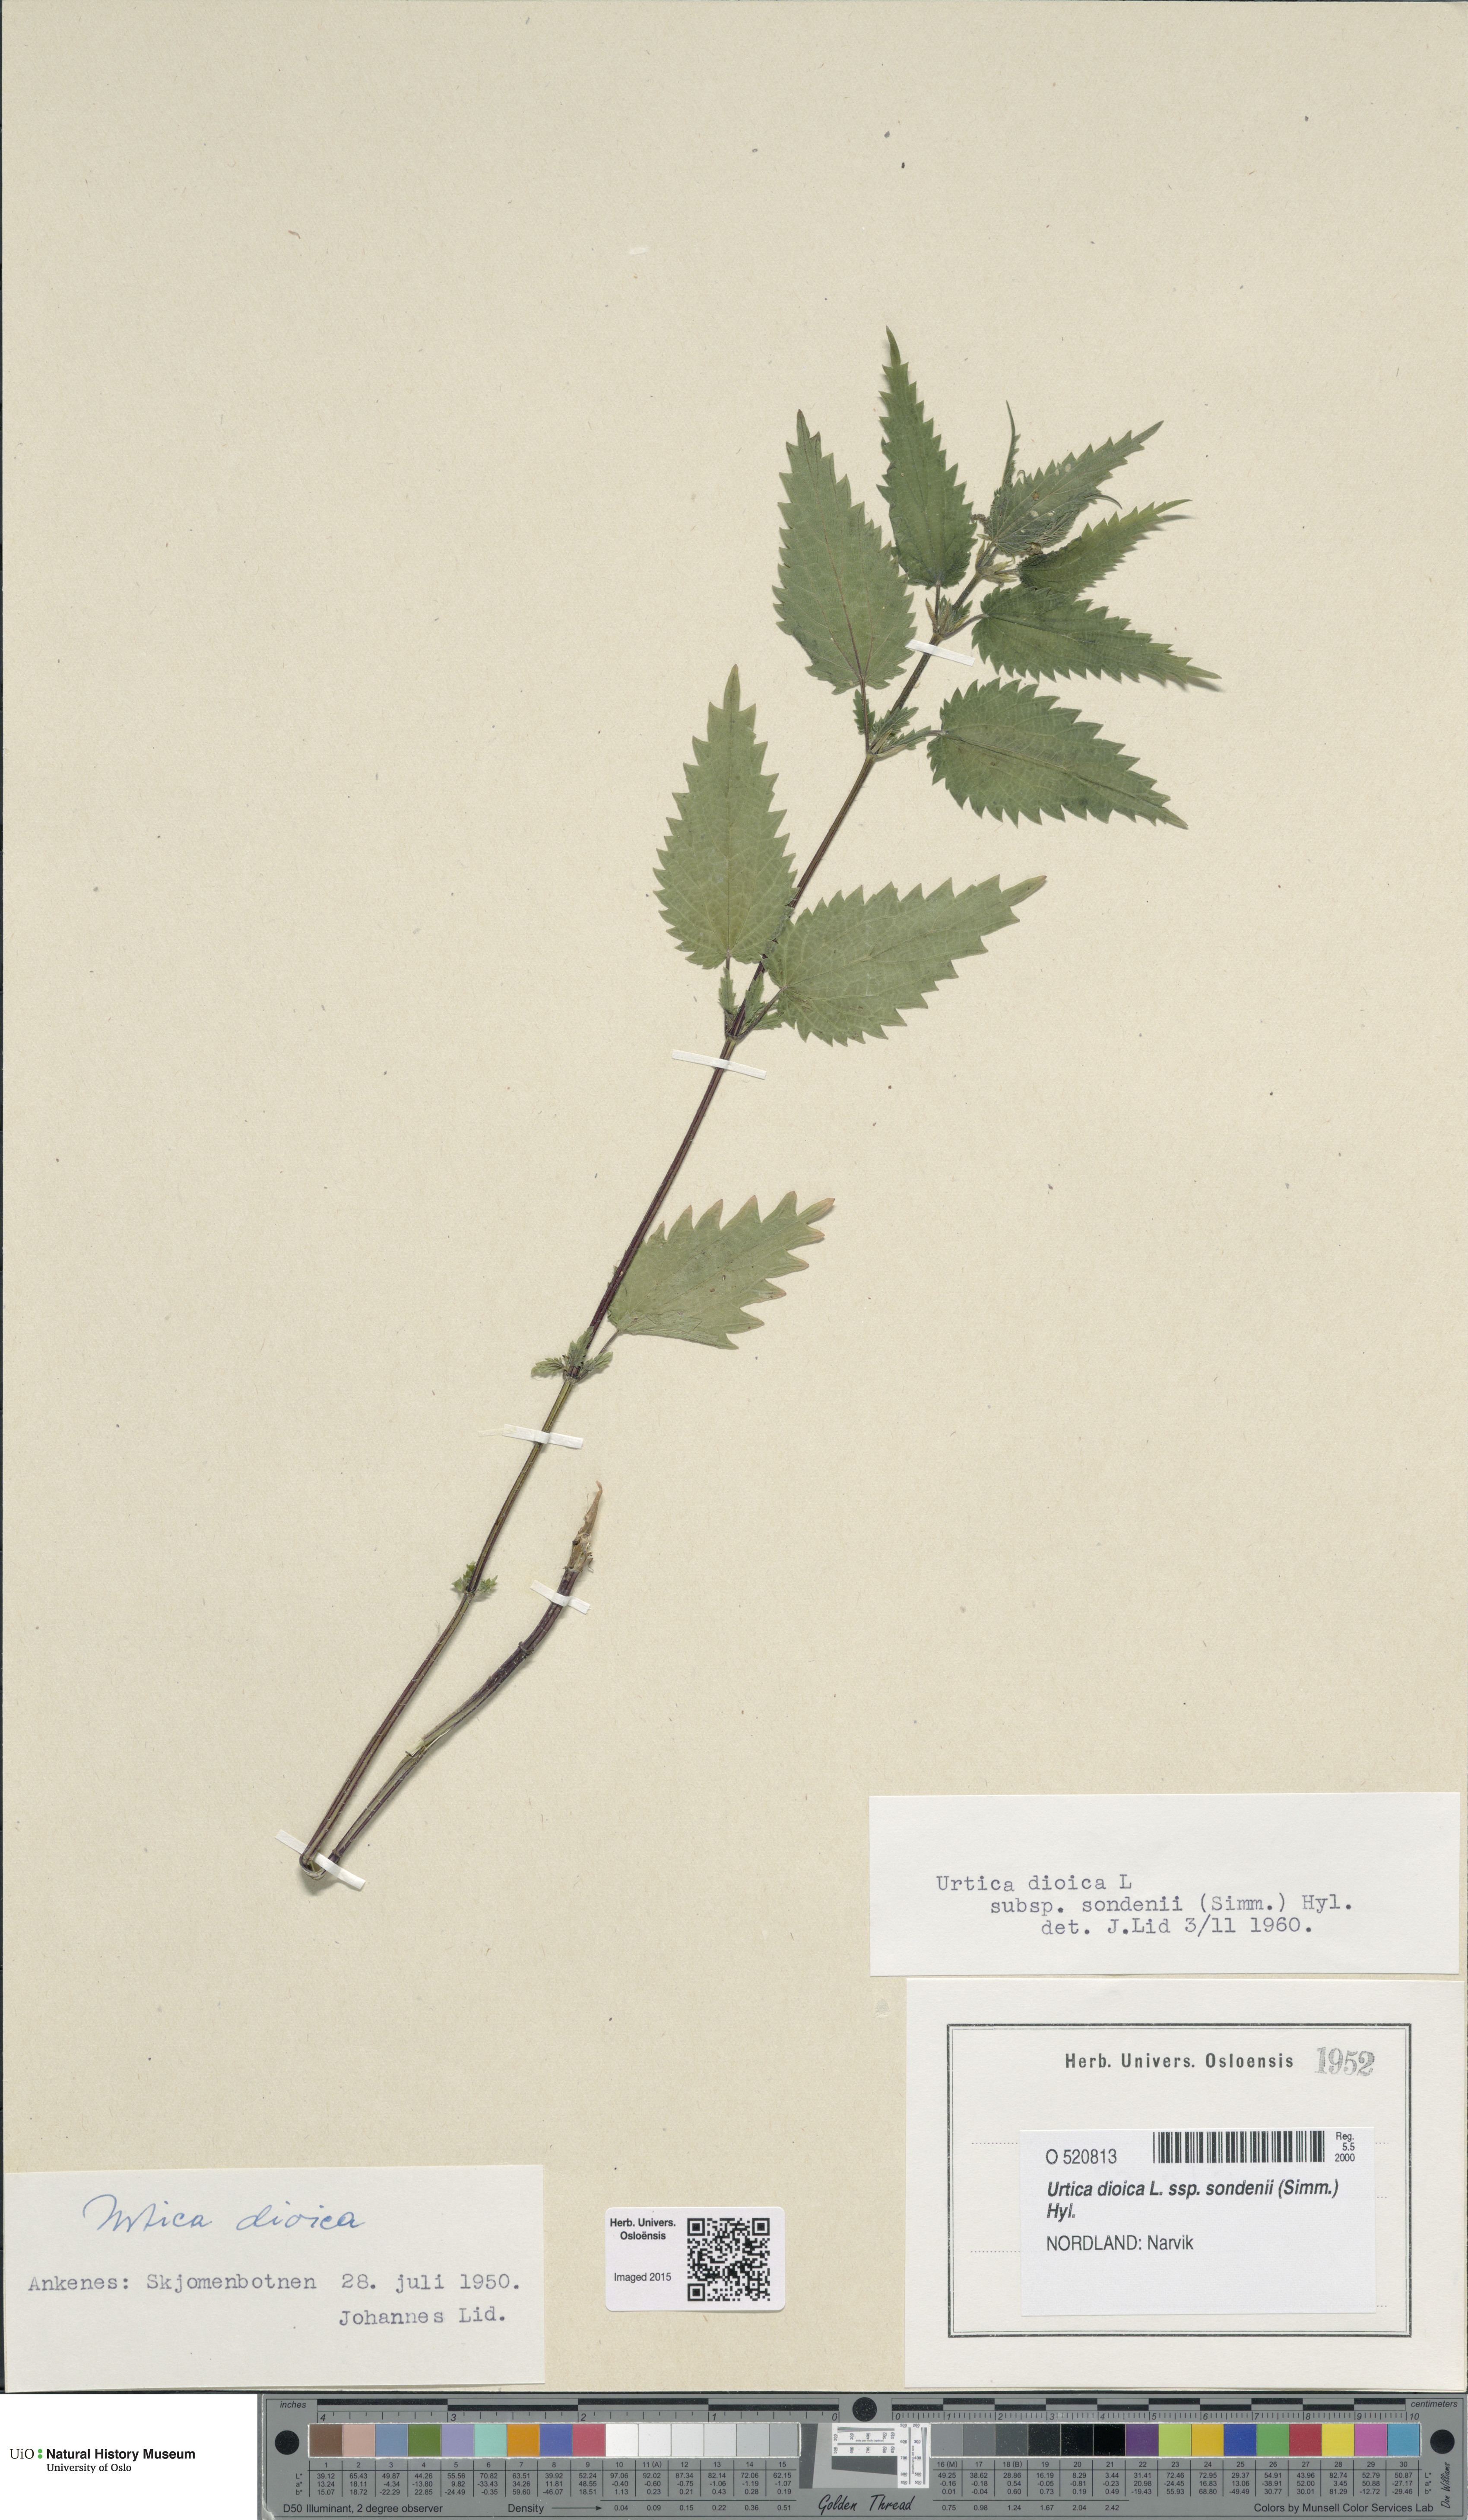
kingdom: Plantae
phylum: Tracheophyta
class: Magnoliopsida
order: Rosales
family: Urticaceae
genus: Urtica
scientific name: Urtica dioica
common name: Common nettle
